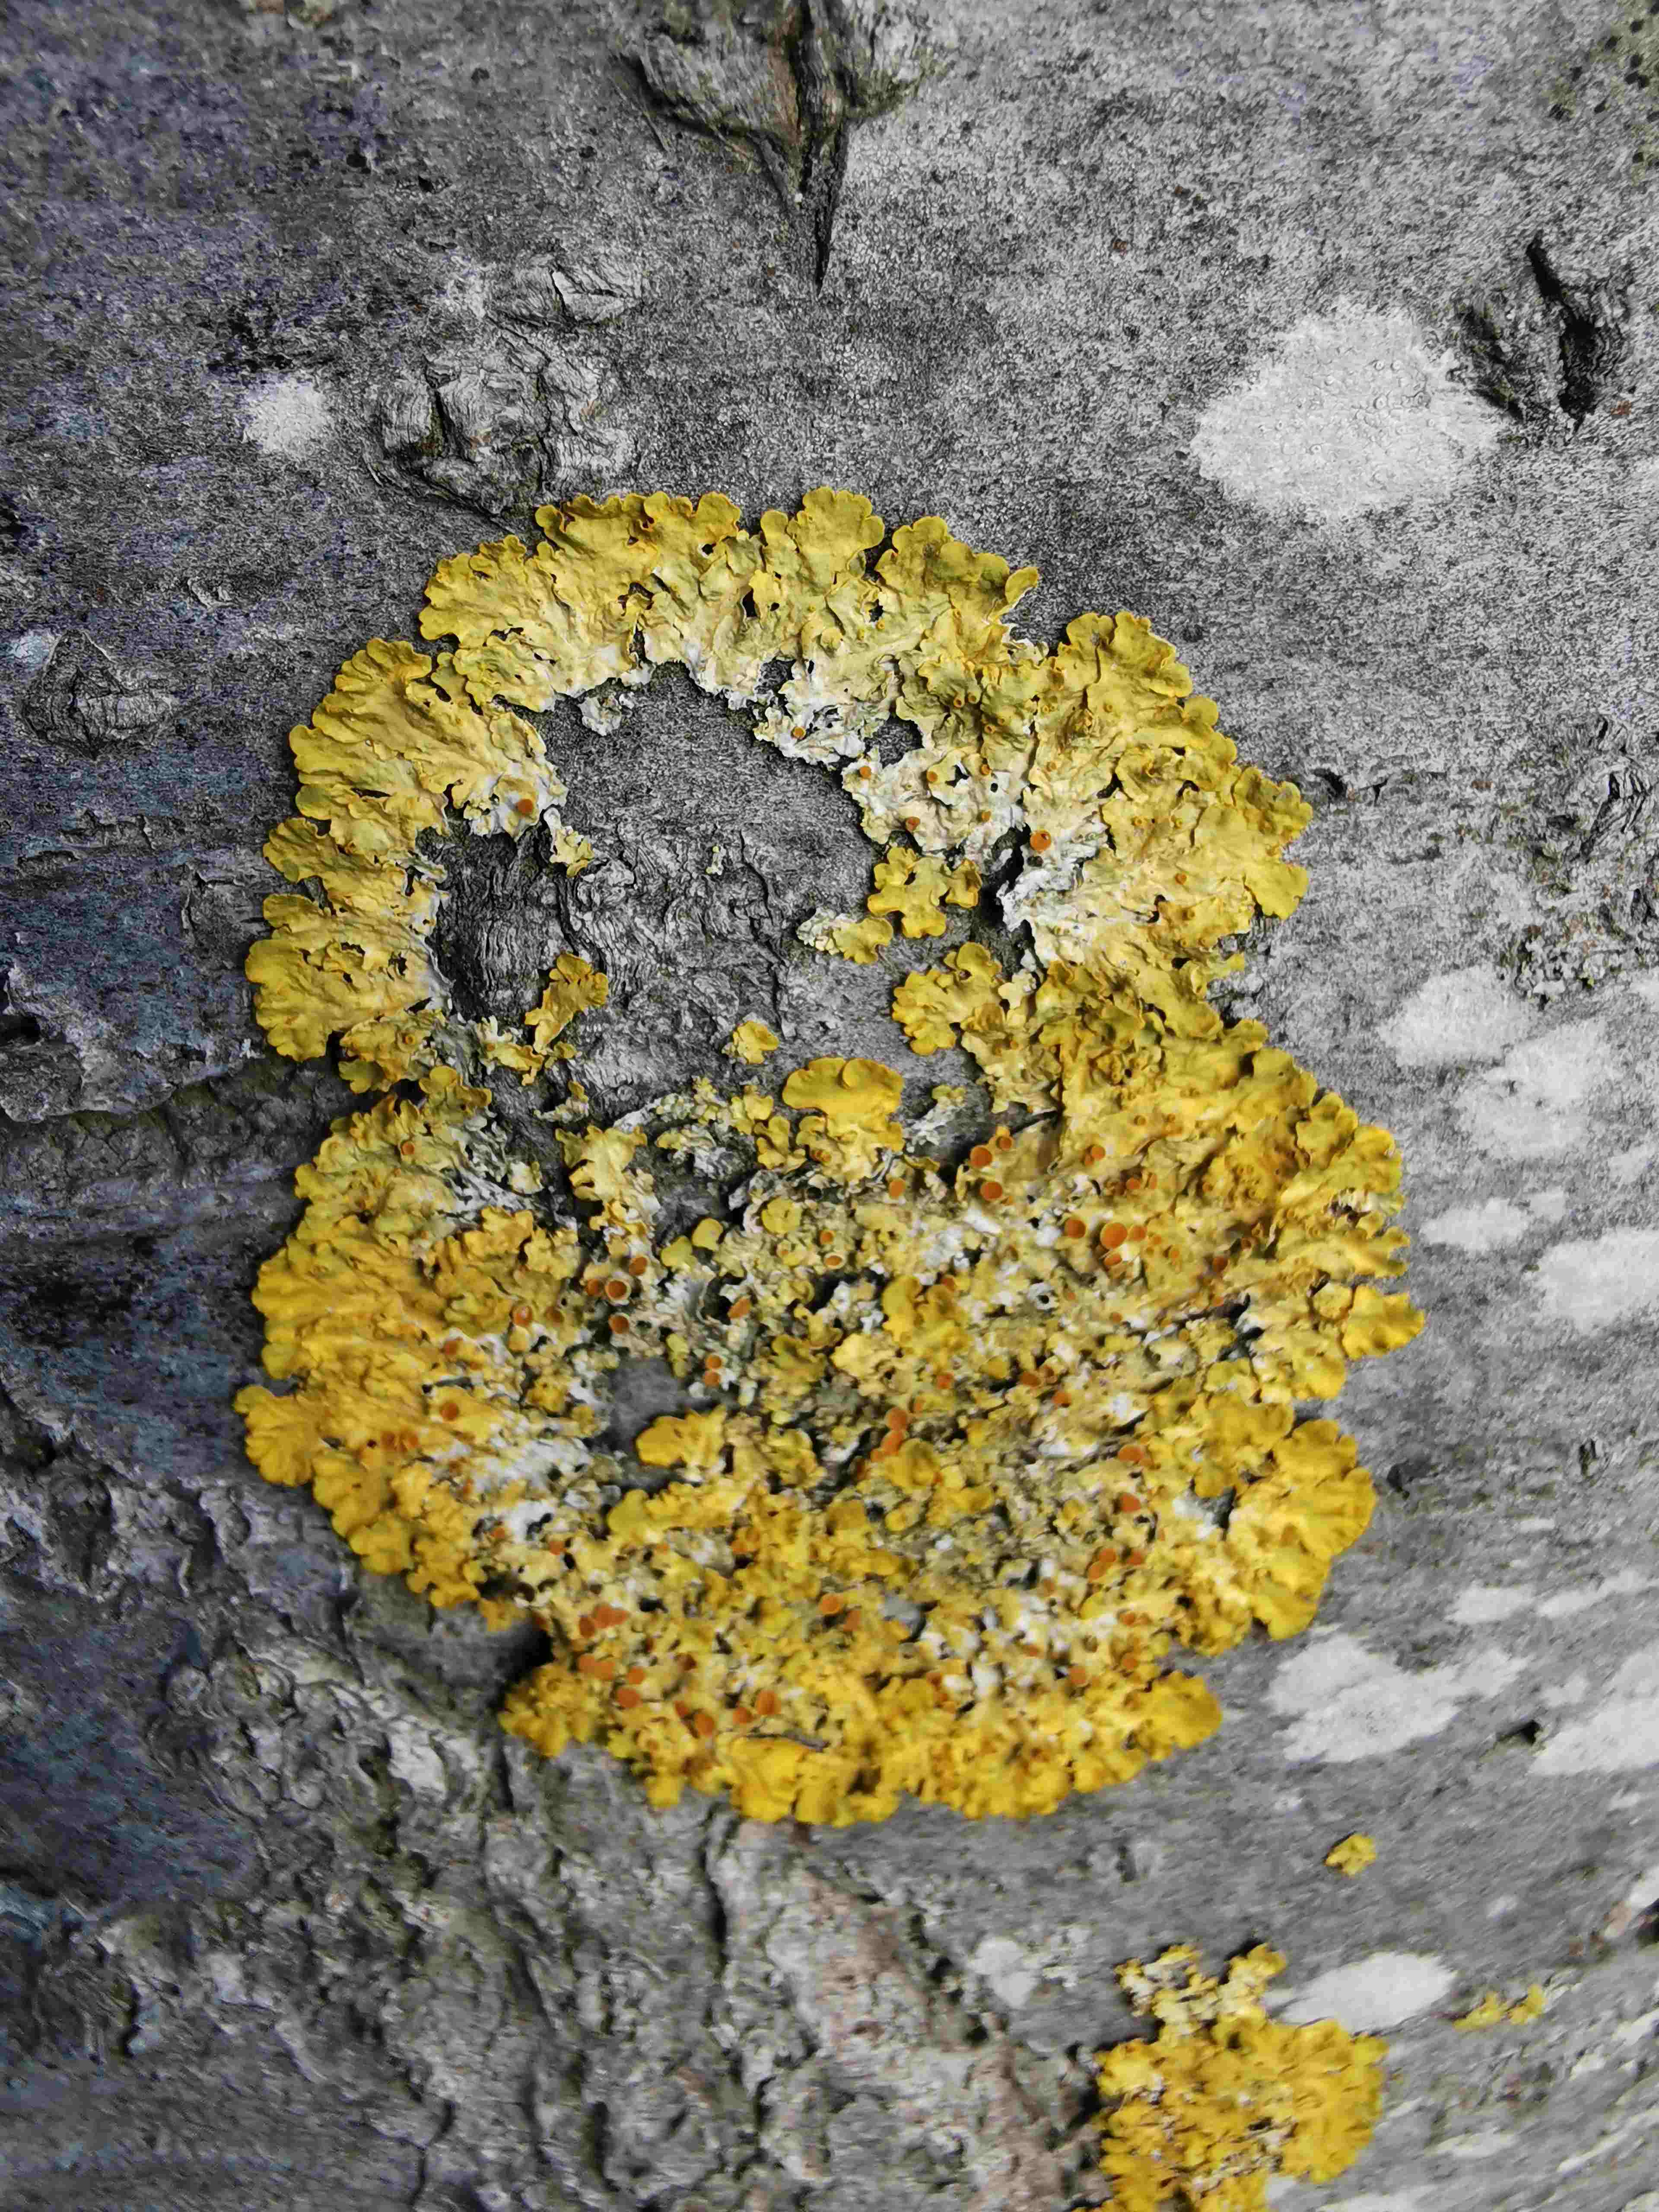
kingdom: Fungi
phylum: Ascomycota
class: Lecanoromycetes
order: Teloschistales
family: Teloschistaceae
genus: Xanthoria
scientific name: Xanthoria parietina
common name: almindelig væggelav
